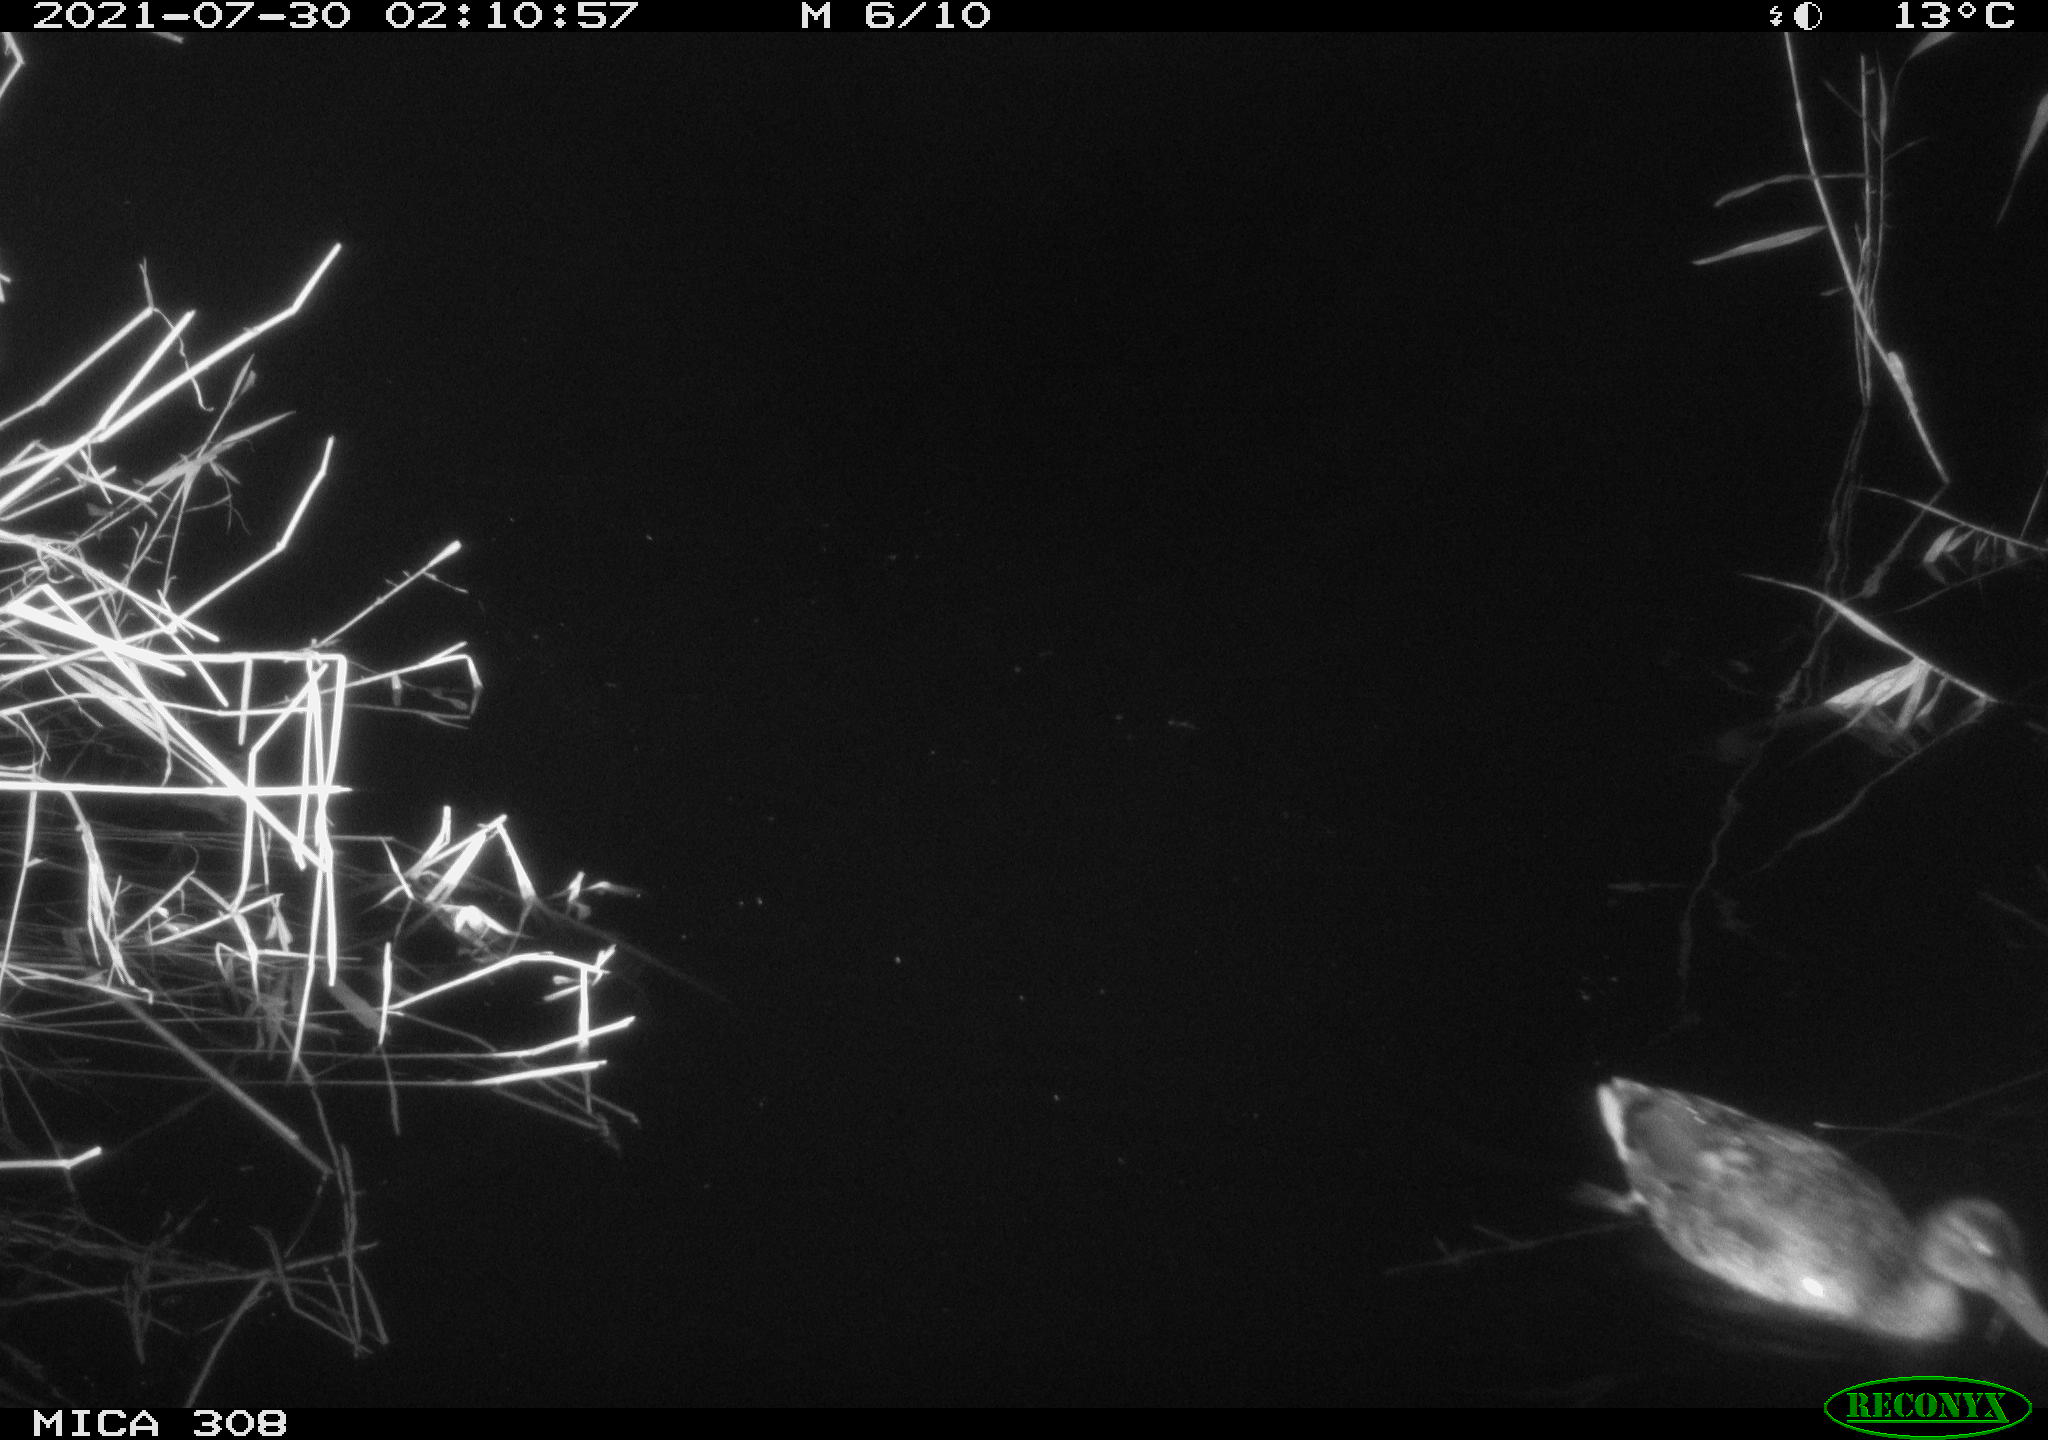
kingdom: Animalia
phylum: Chordata
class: Aves
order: Gruiformes
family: Rallidae
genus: Fulica
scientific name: Fulica atra
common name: Eurasian coot
